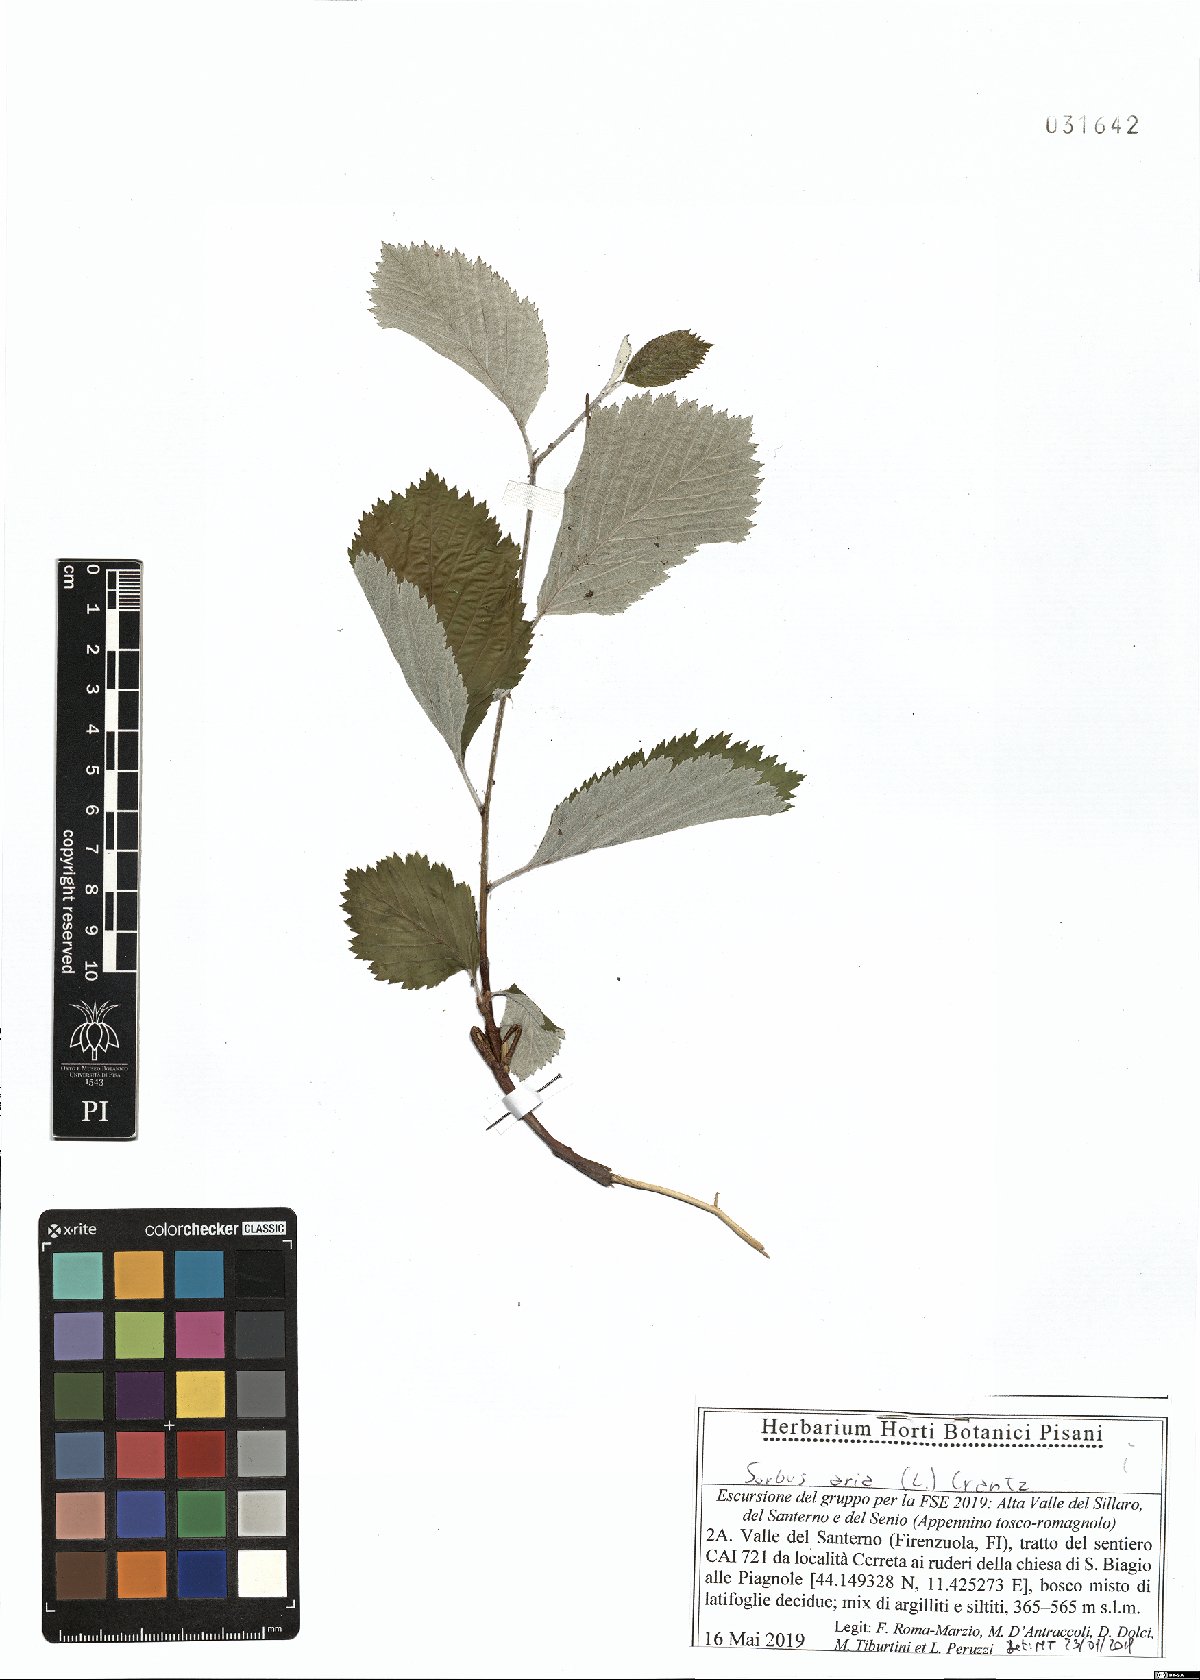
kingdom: Plantae
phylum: Tracheophyta
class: Magnoliopsida
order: Rosales
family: Rosaceae
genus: Aria
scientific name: Aria edulis
